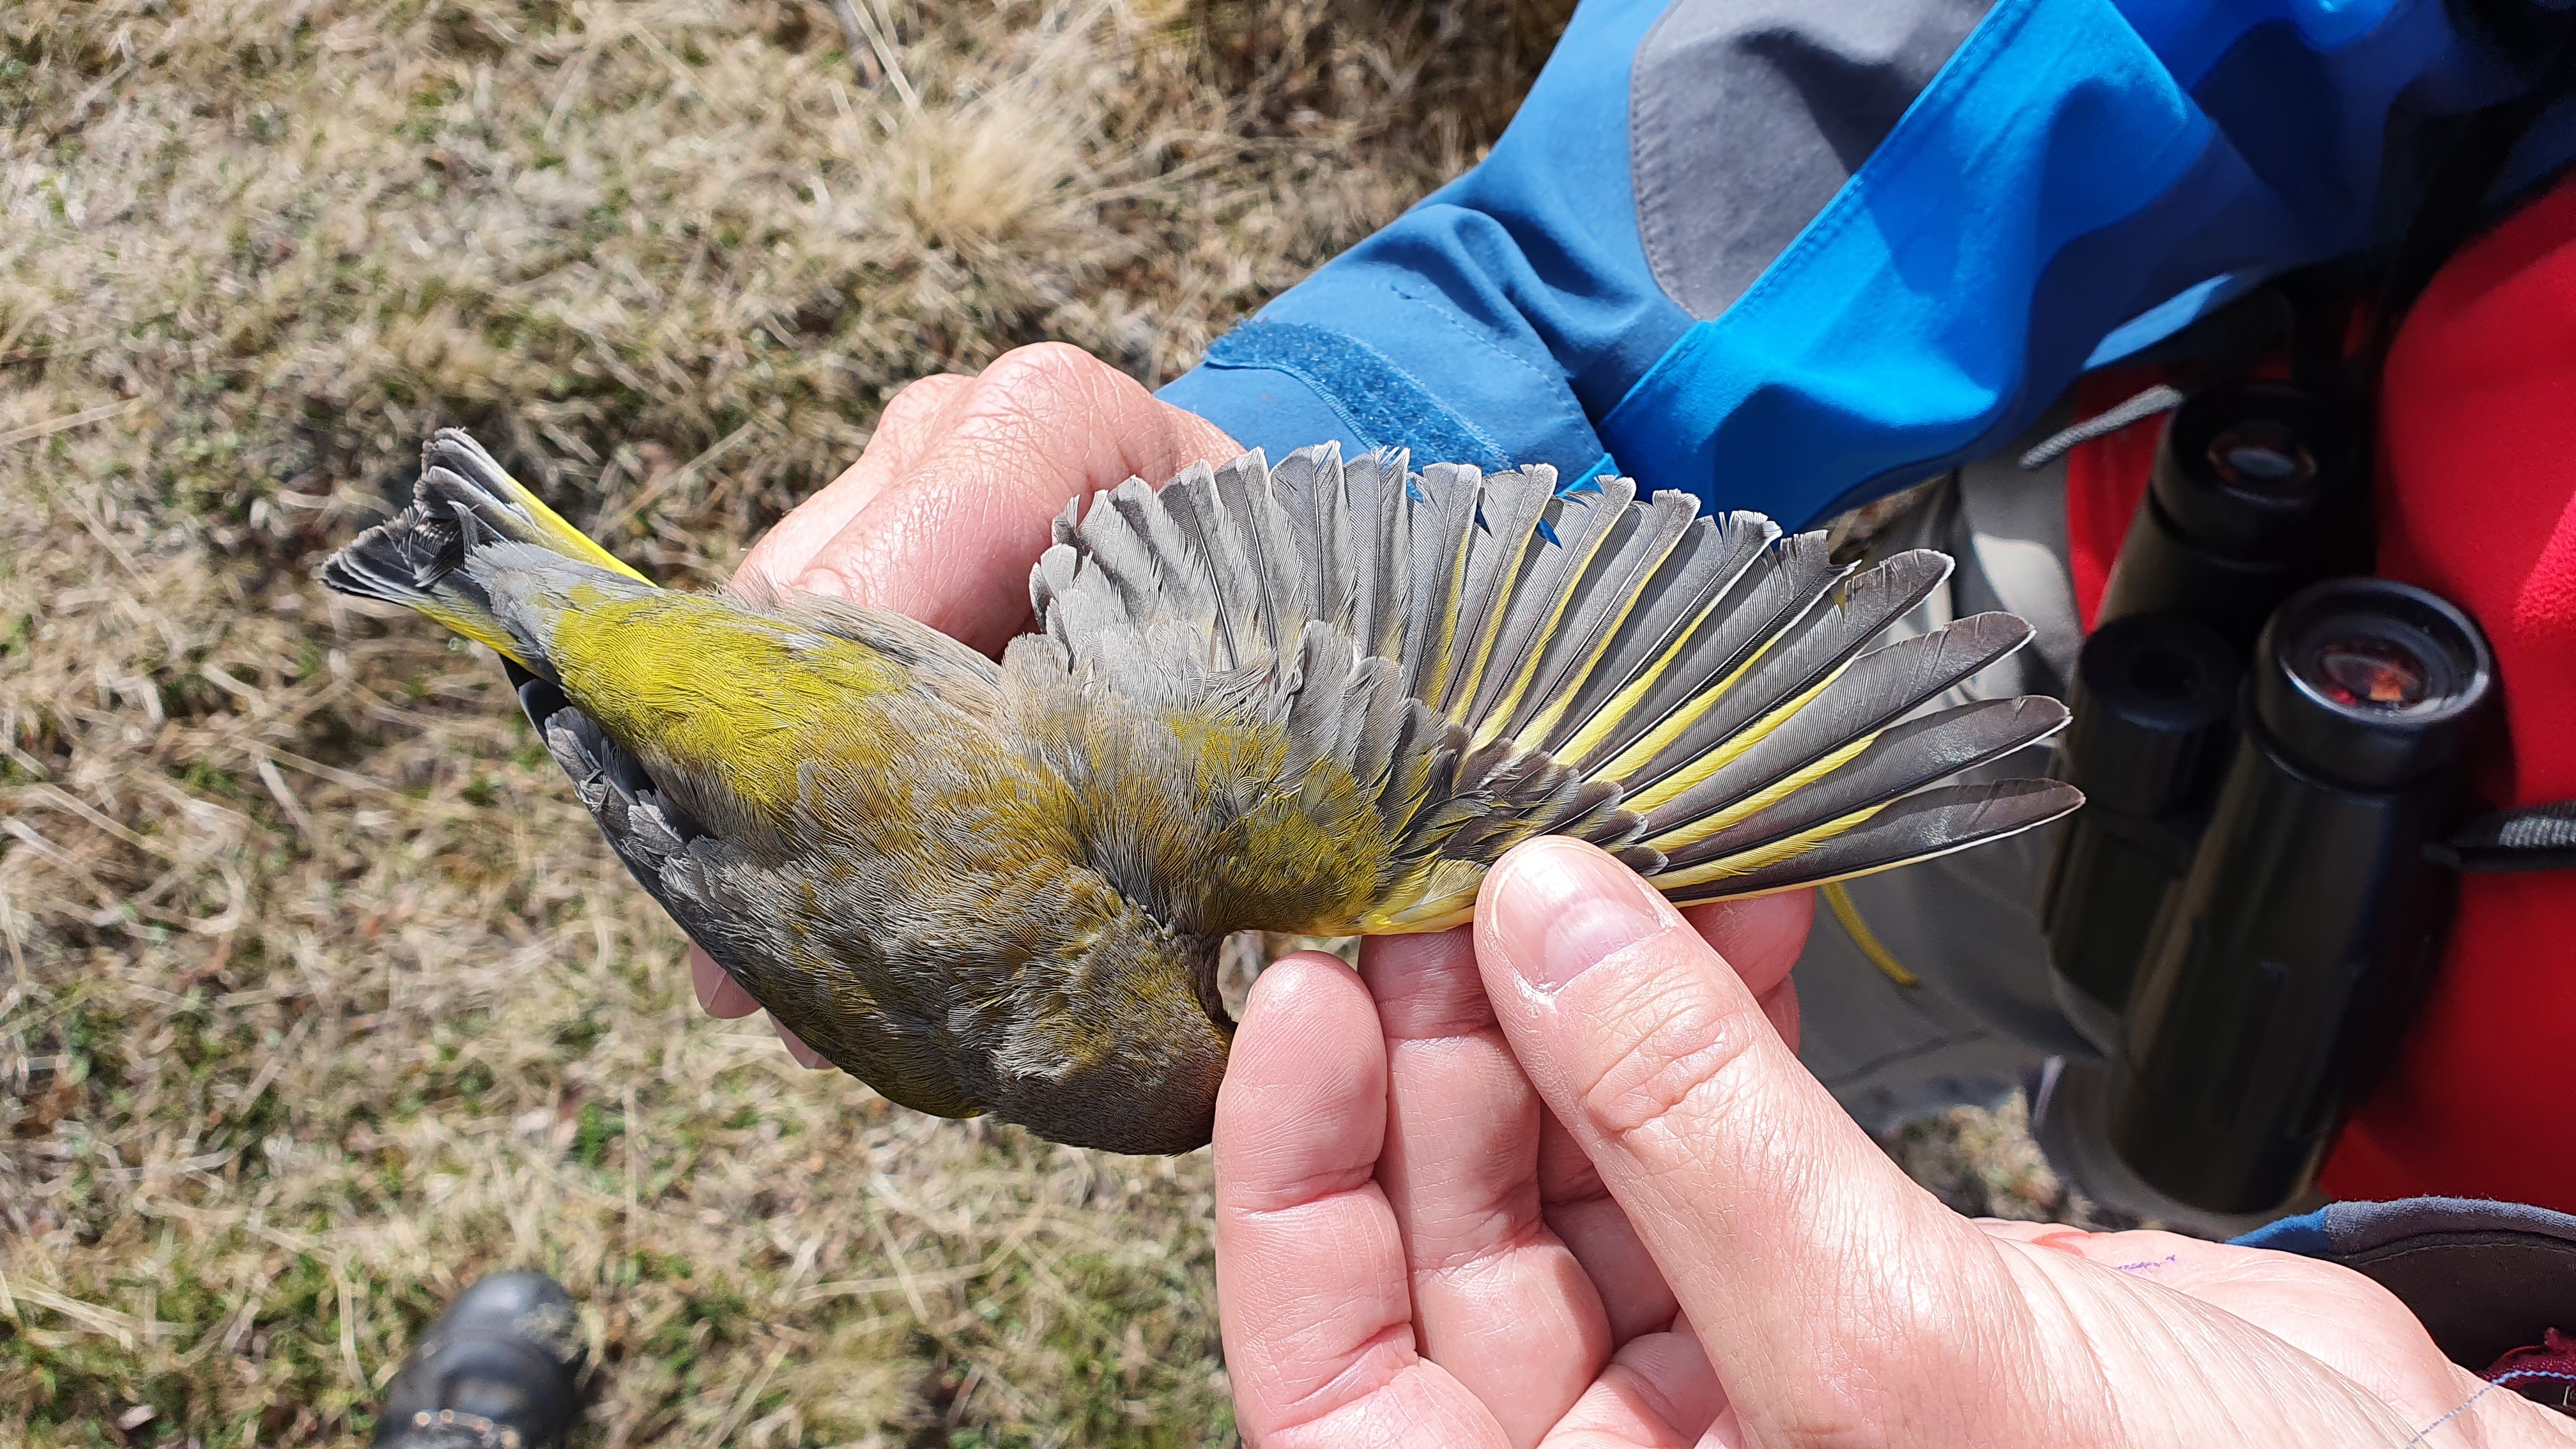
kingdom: Plantae
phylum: Tracheophyta
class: Liliopsida
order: Poales
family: Poaceae
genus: Chloris
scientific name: Chloris chloris
